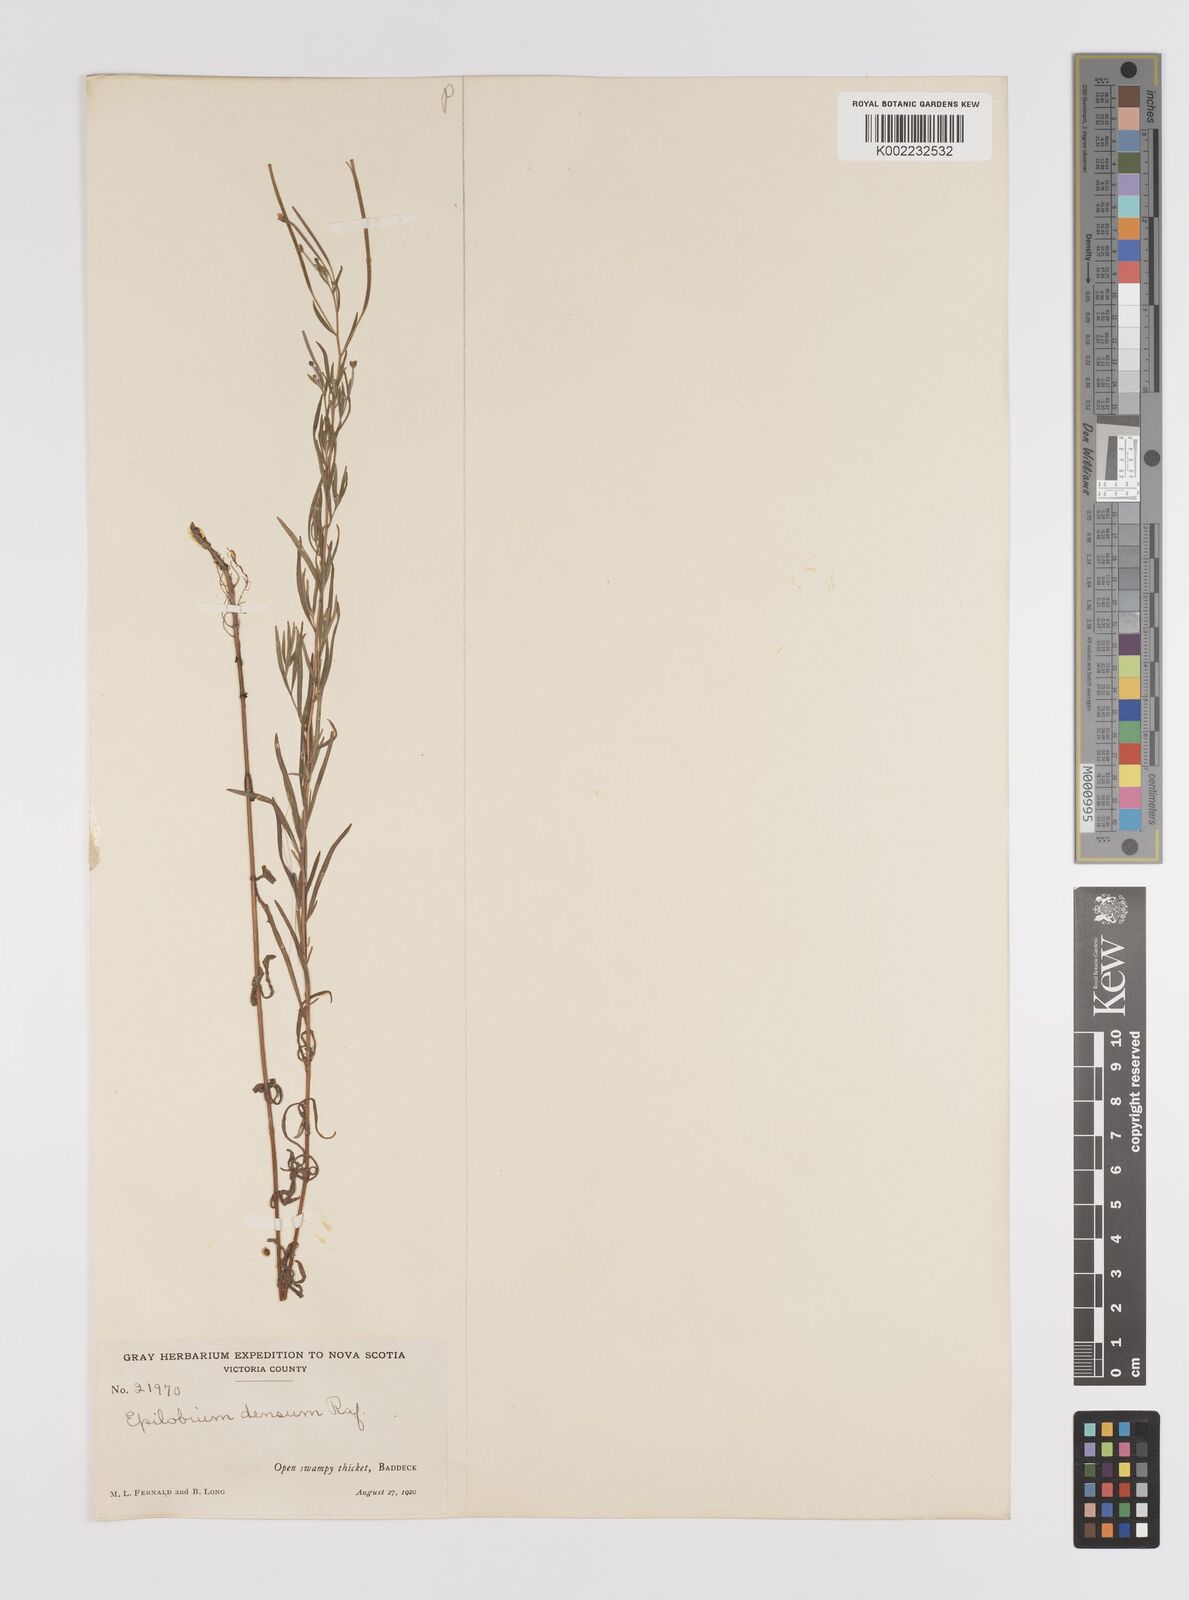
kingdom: Plantae
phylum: Tracheophyta
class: Magnoliopsida
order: Myrtales
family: Onagraceae
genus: Epilobium
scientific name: Epilobium densum
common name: Downy willowherb
